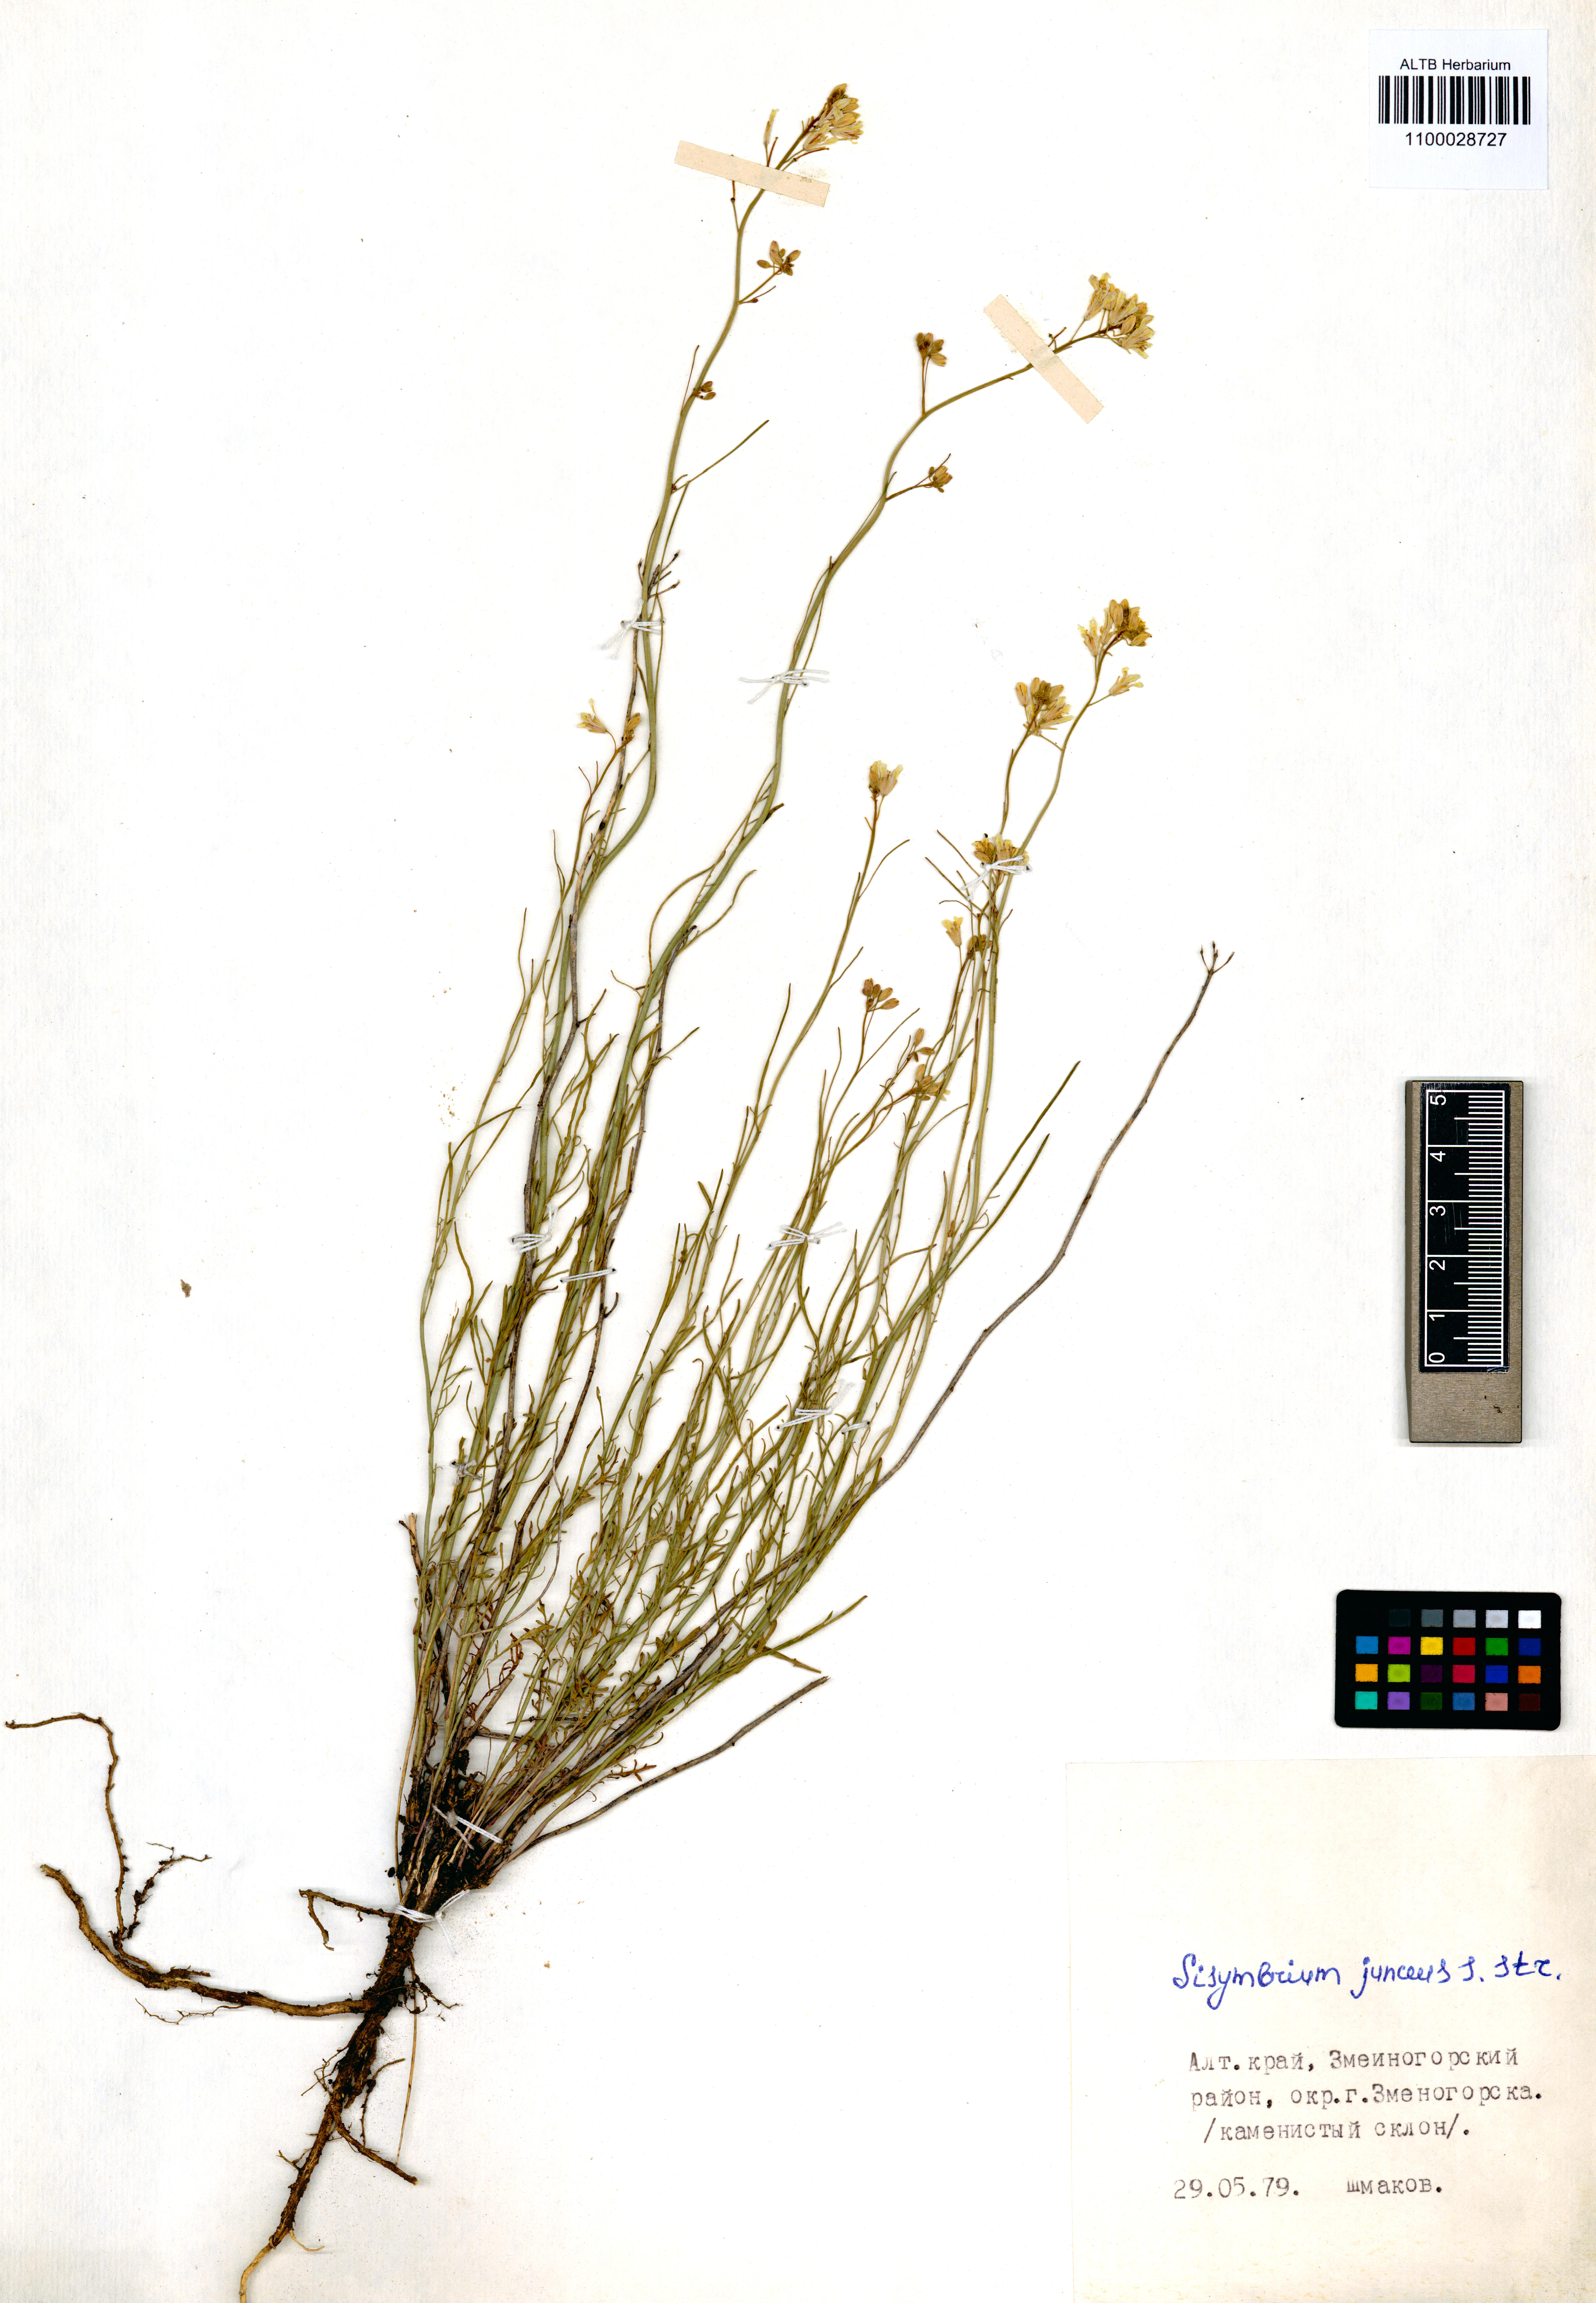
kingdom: Plantae
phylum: Tracheophyta
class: Magnoliopsida
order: Brassicales
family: Brassicaceae
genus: Sisymbrium
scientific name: Sisymbrium polymorphum
